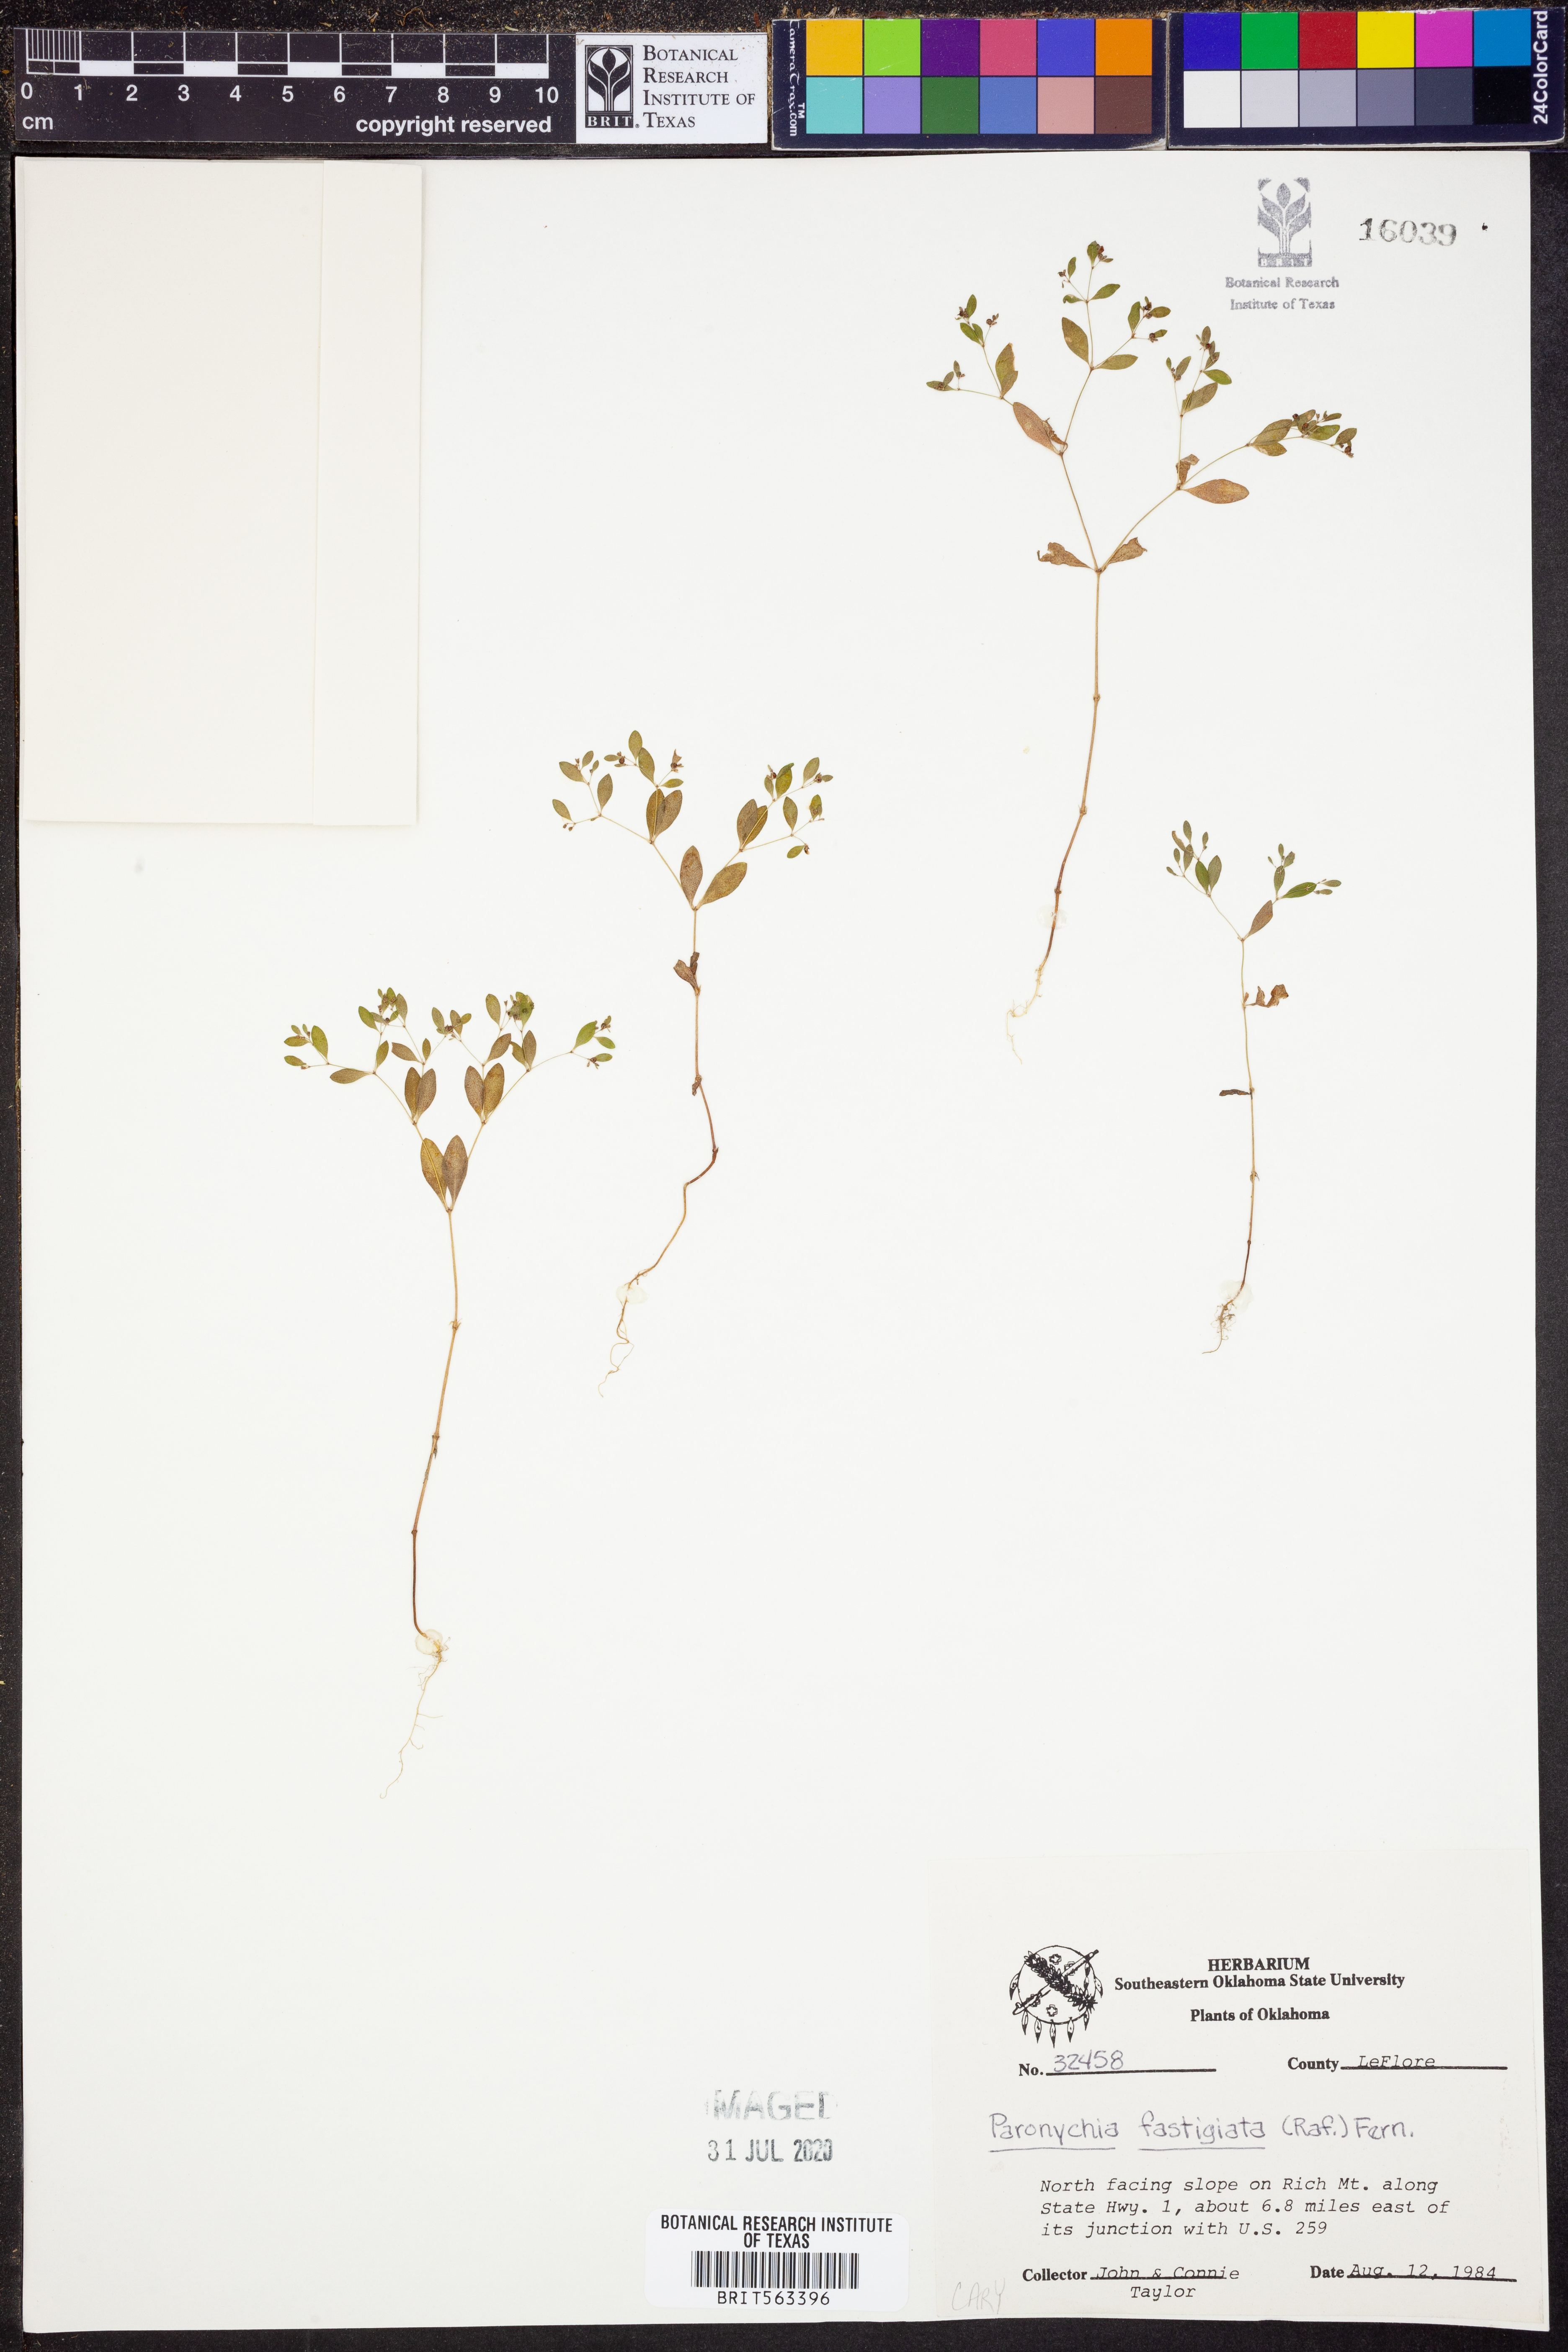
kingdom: Plantae
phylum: Tracheophyta
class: Magnoliopsida
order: Caryophyllales
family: Caryophyllaceae
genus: Paronychia
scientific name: Paronychia fastigiata
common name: Branching forked whitlow-wort
